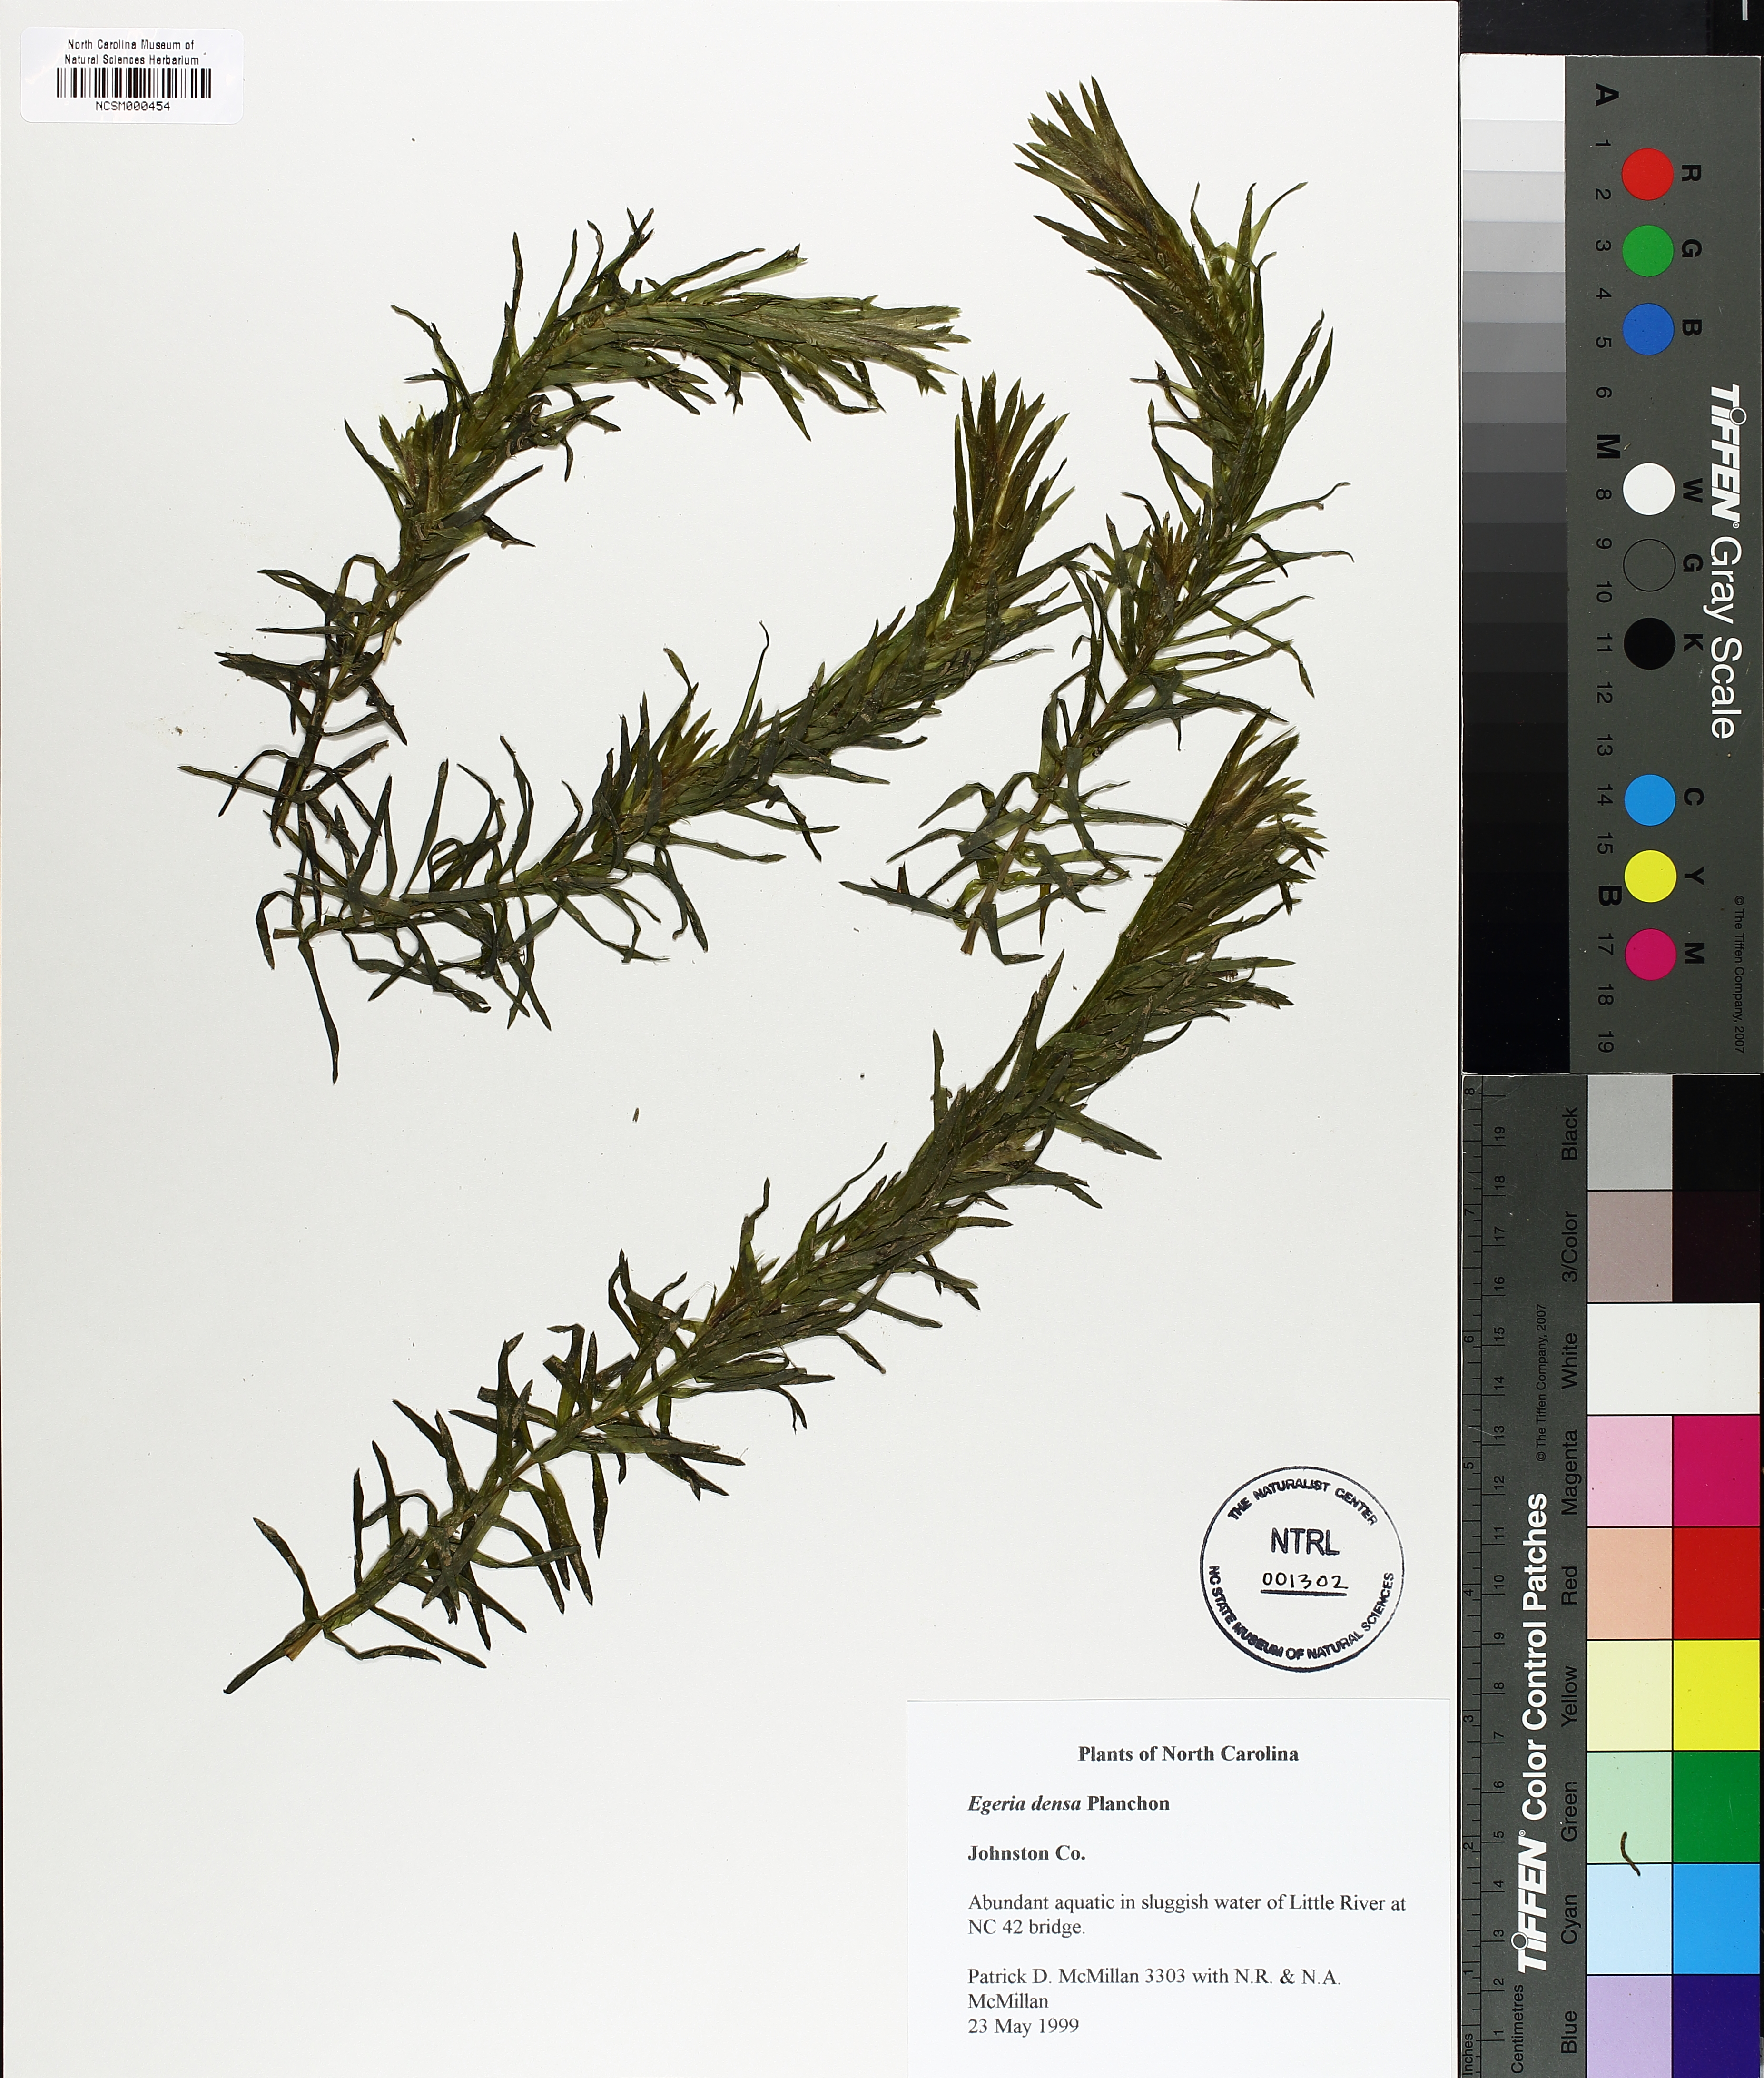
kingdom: Plantae
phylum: Tracheophyta
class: Liliopsida
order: Alismatales
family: Hydrocharitaceae
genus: Elodea
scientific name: Elodea densa
